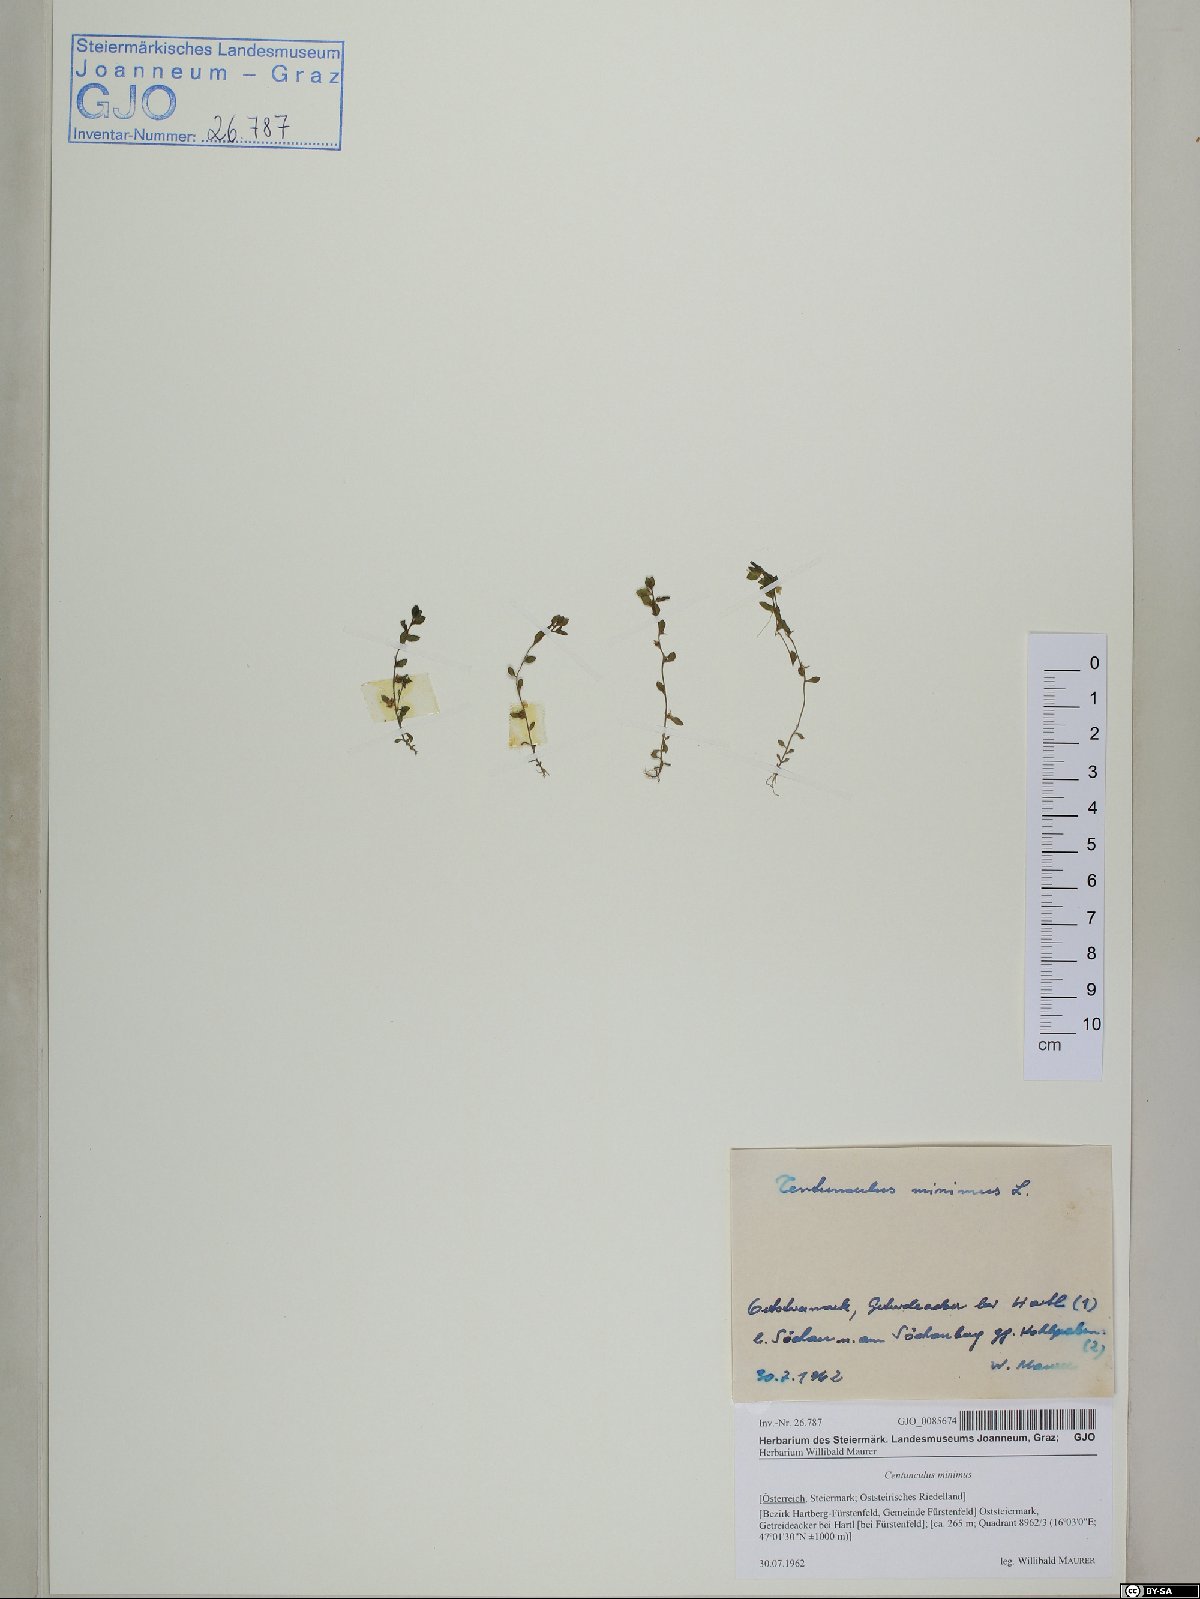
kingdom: Plantae
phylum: Tracheophyta
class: Magnoliopsida
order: Ericales
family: Primulaceae
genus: Lysimachia
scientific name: Lysimachia minima
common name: Chaffweed
